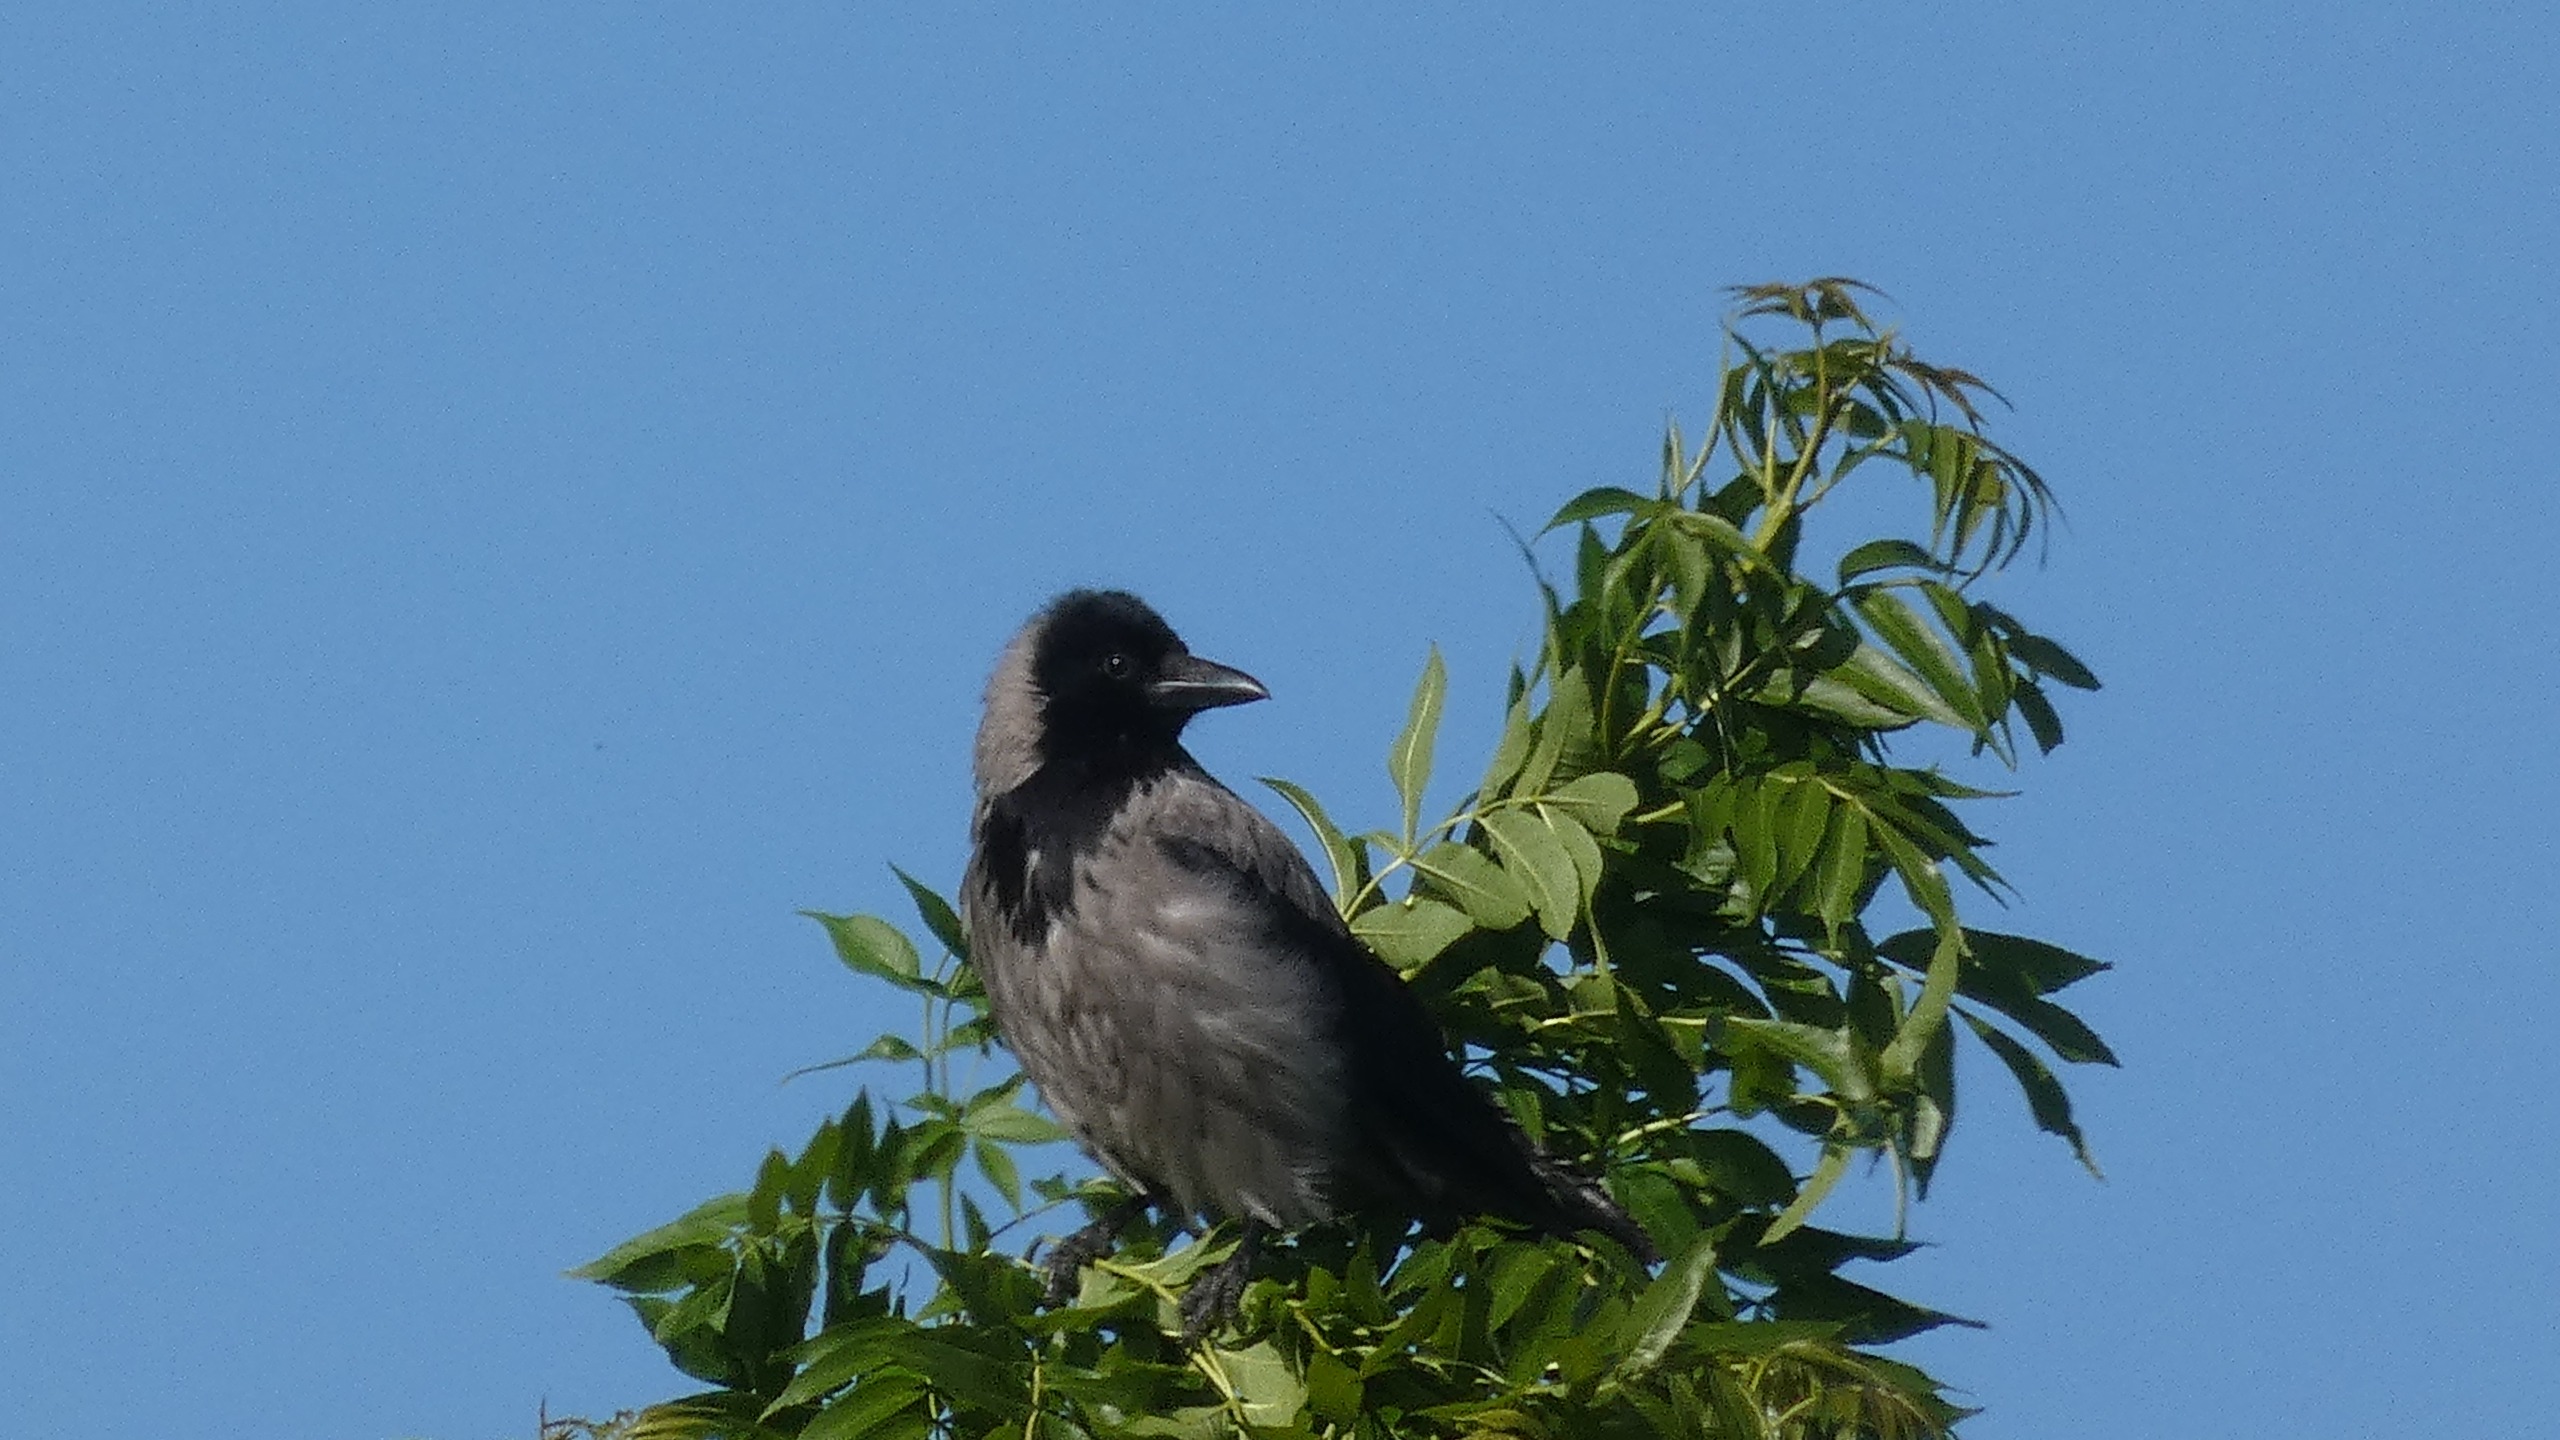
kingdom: Animalia
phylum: Chordata
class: Aves
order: Passeriformes
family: Corvidae
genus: Corvus
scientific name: Corvus cornix
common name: Gråkrage
